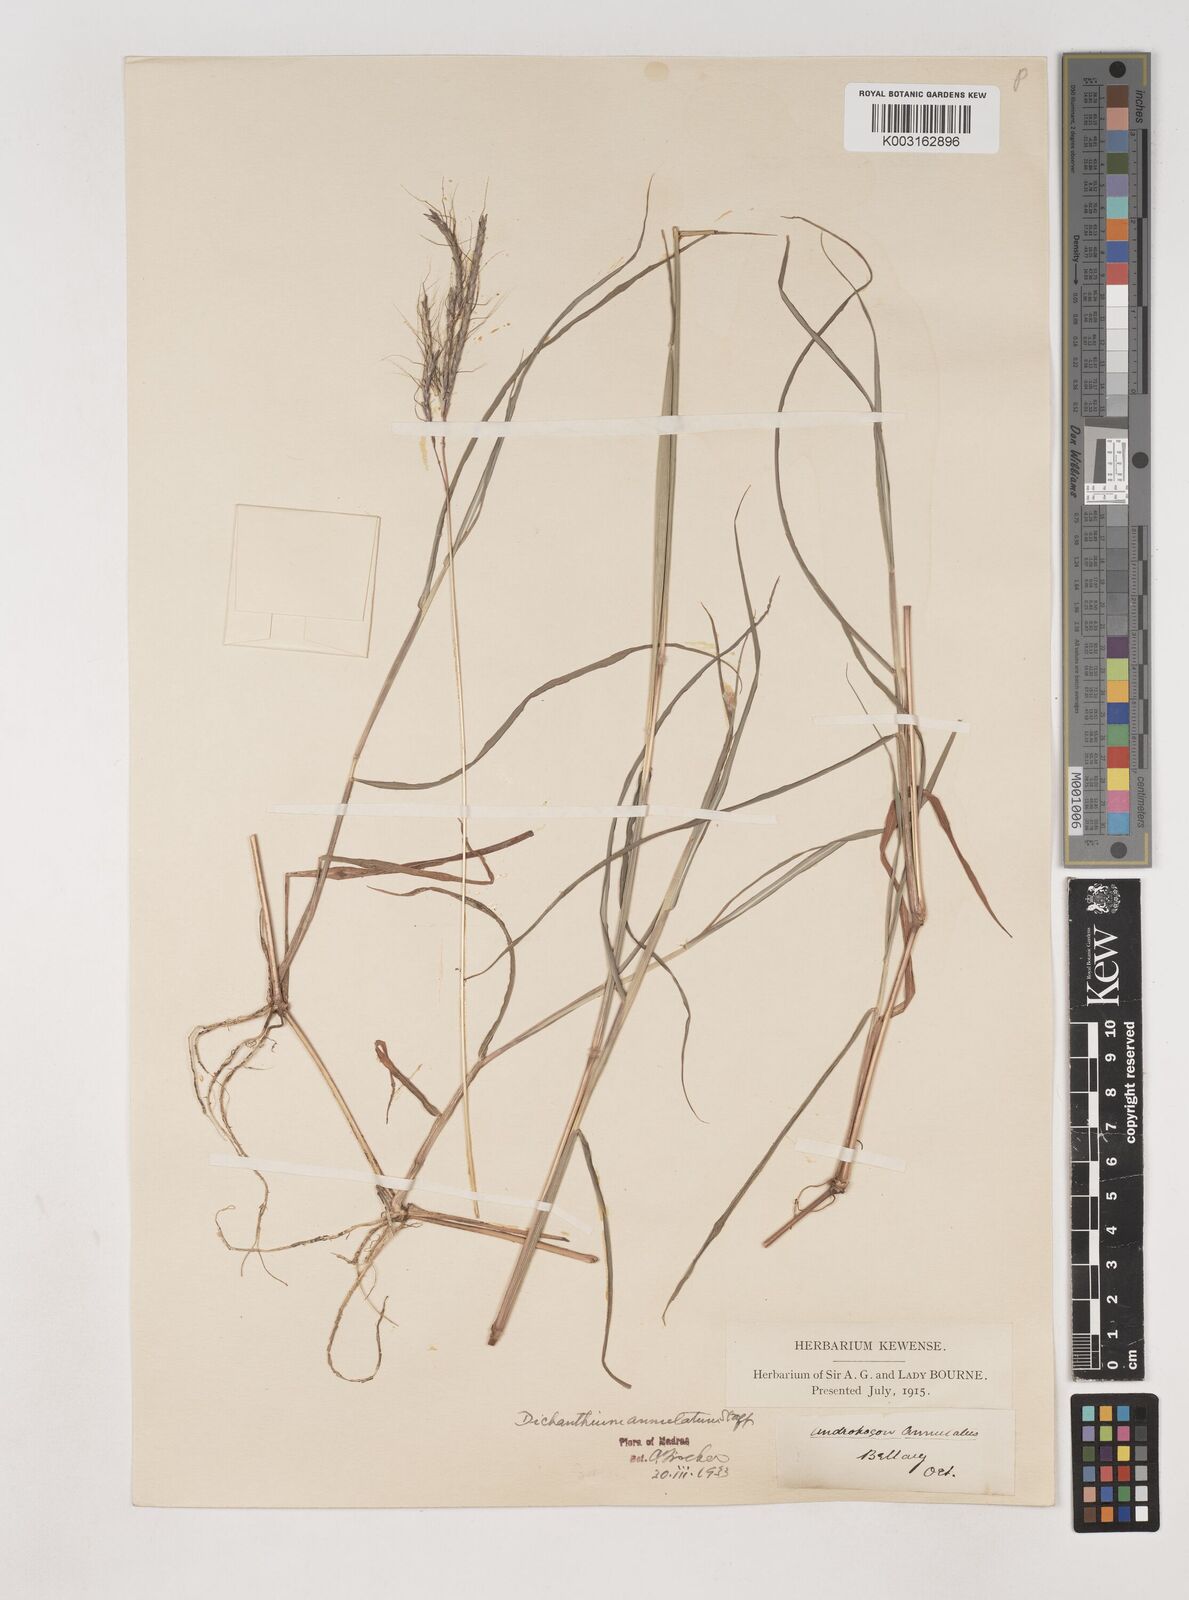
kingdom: Plantae
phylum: Tracheophyta
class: Liliopsida
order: Poales
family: Poaceae
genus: Dichanthium
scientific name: Dichanthium annulatum
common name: Kleberg's bluestem
